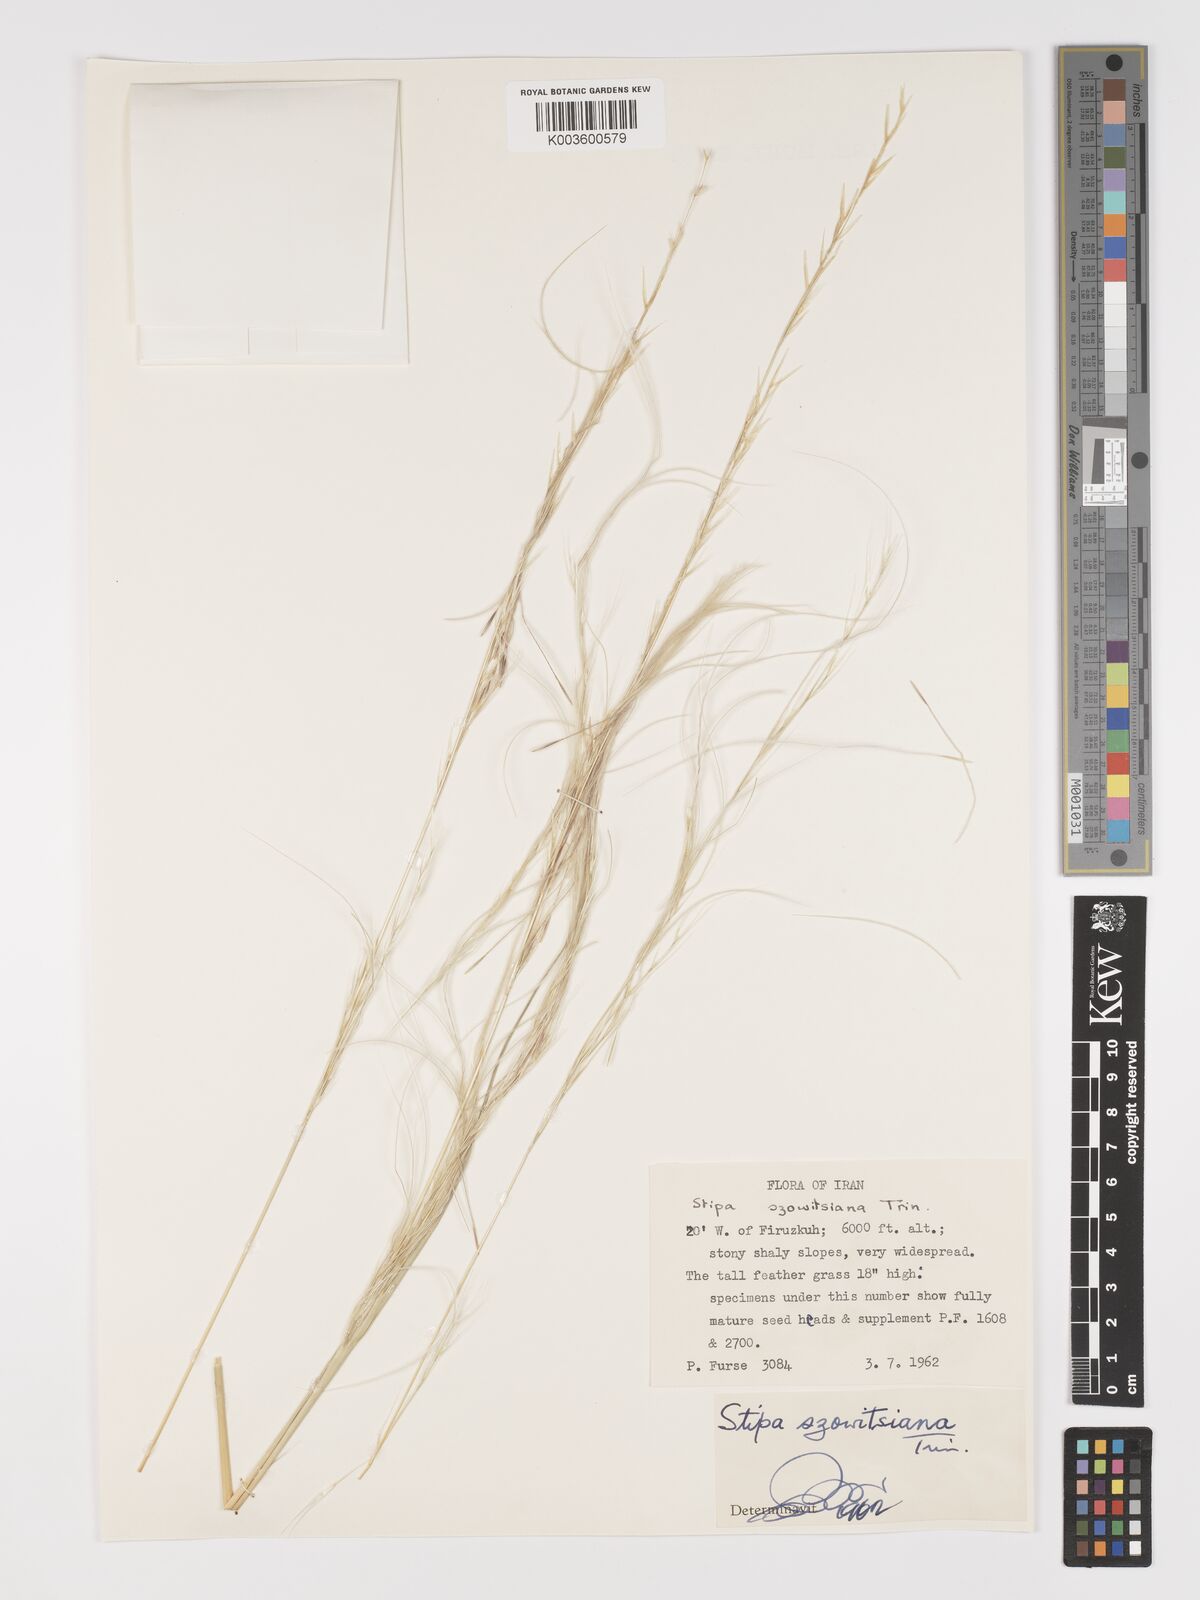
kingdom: Plantae
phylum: Tracheophyta
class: Liliopsida
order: Poales
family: Poaceae
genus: Stipa
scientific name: Stipa barbata
